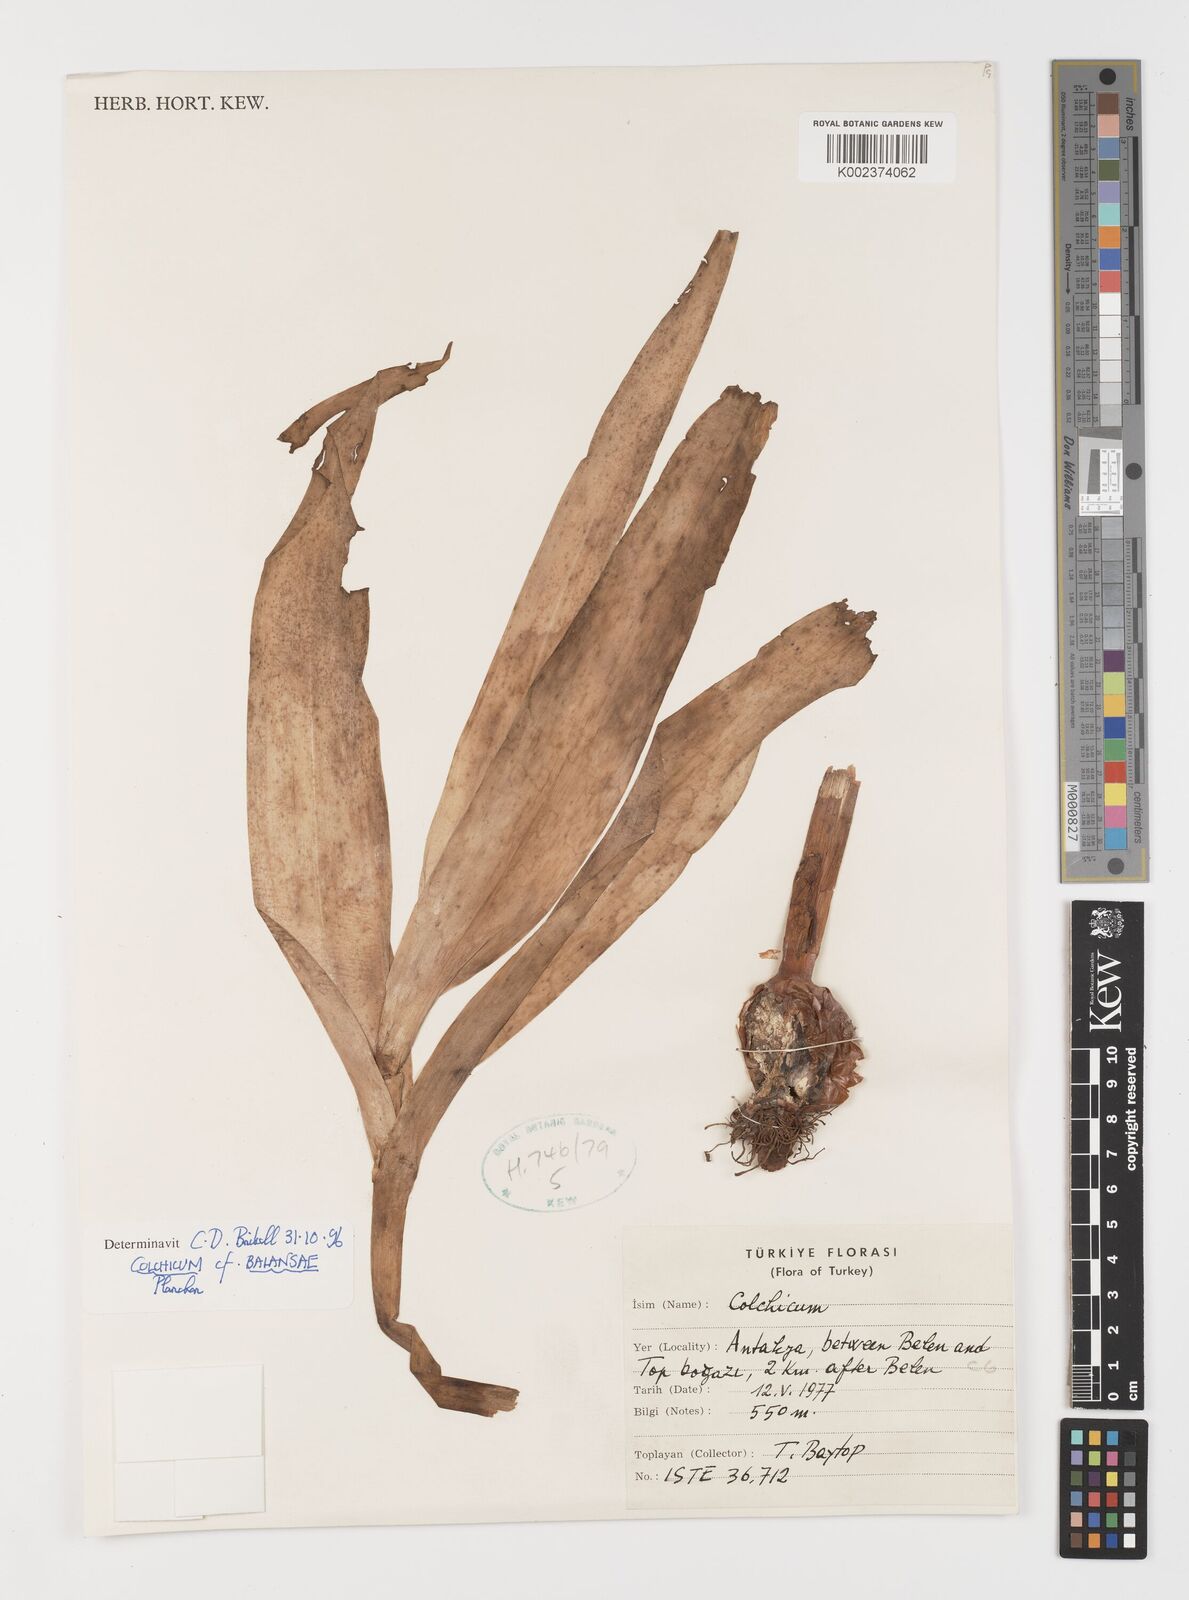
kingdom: Plantae
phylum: Tracheophyta
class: Liliopsida
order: Liliales
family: Colchicaceae
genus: Colchicum
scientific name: Colchicum balansae
